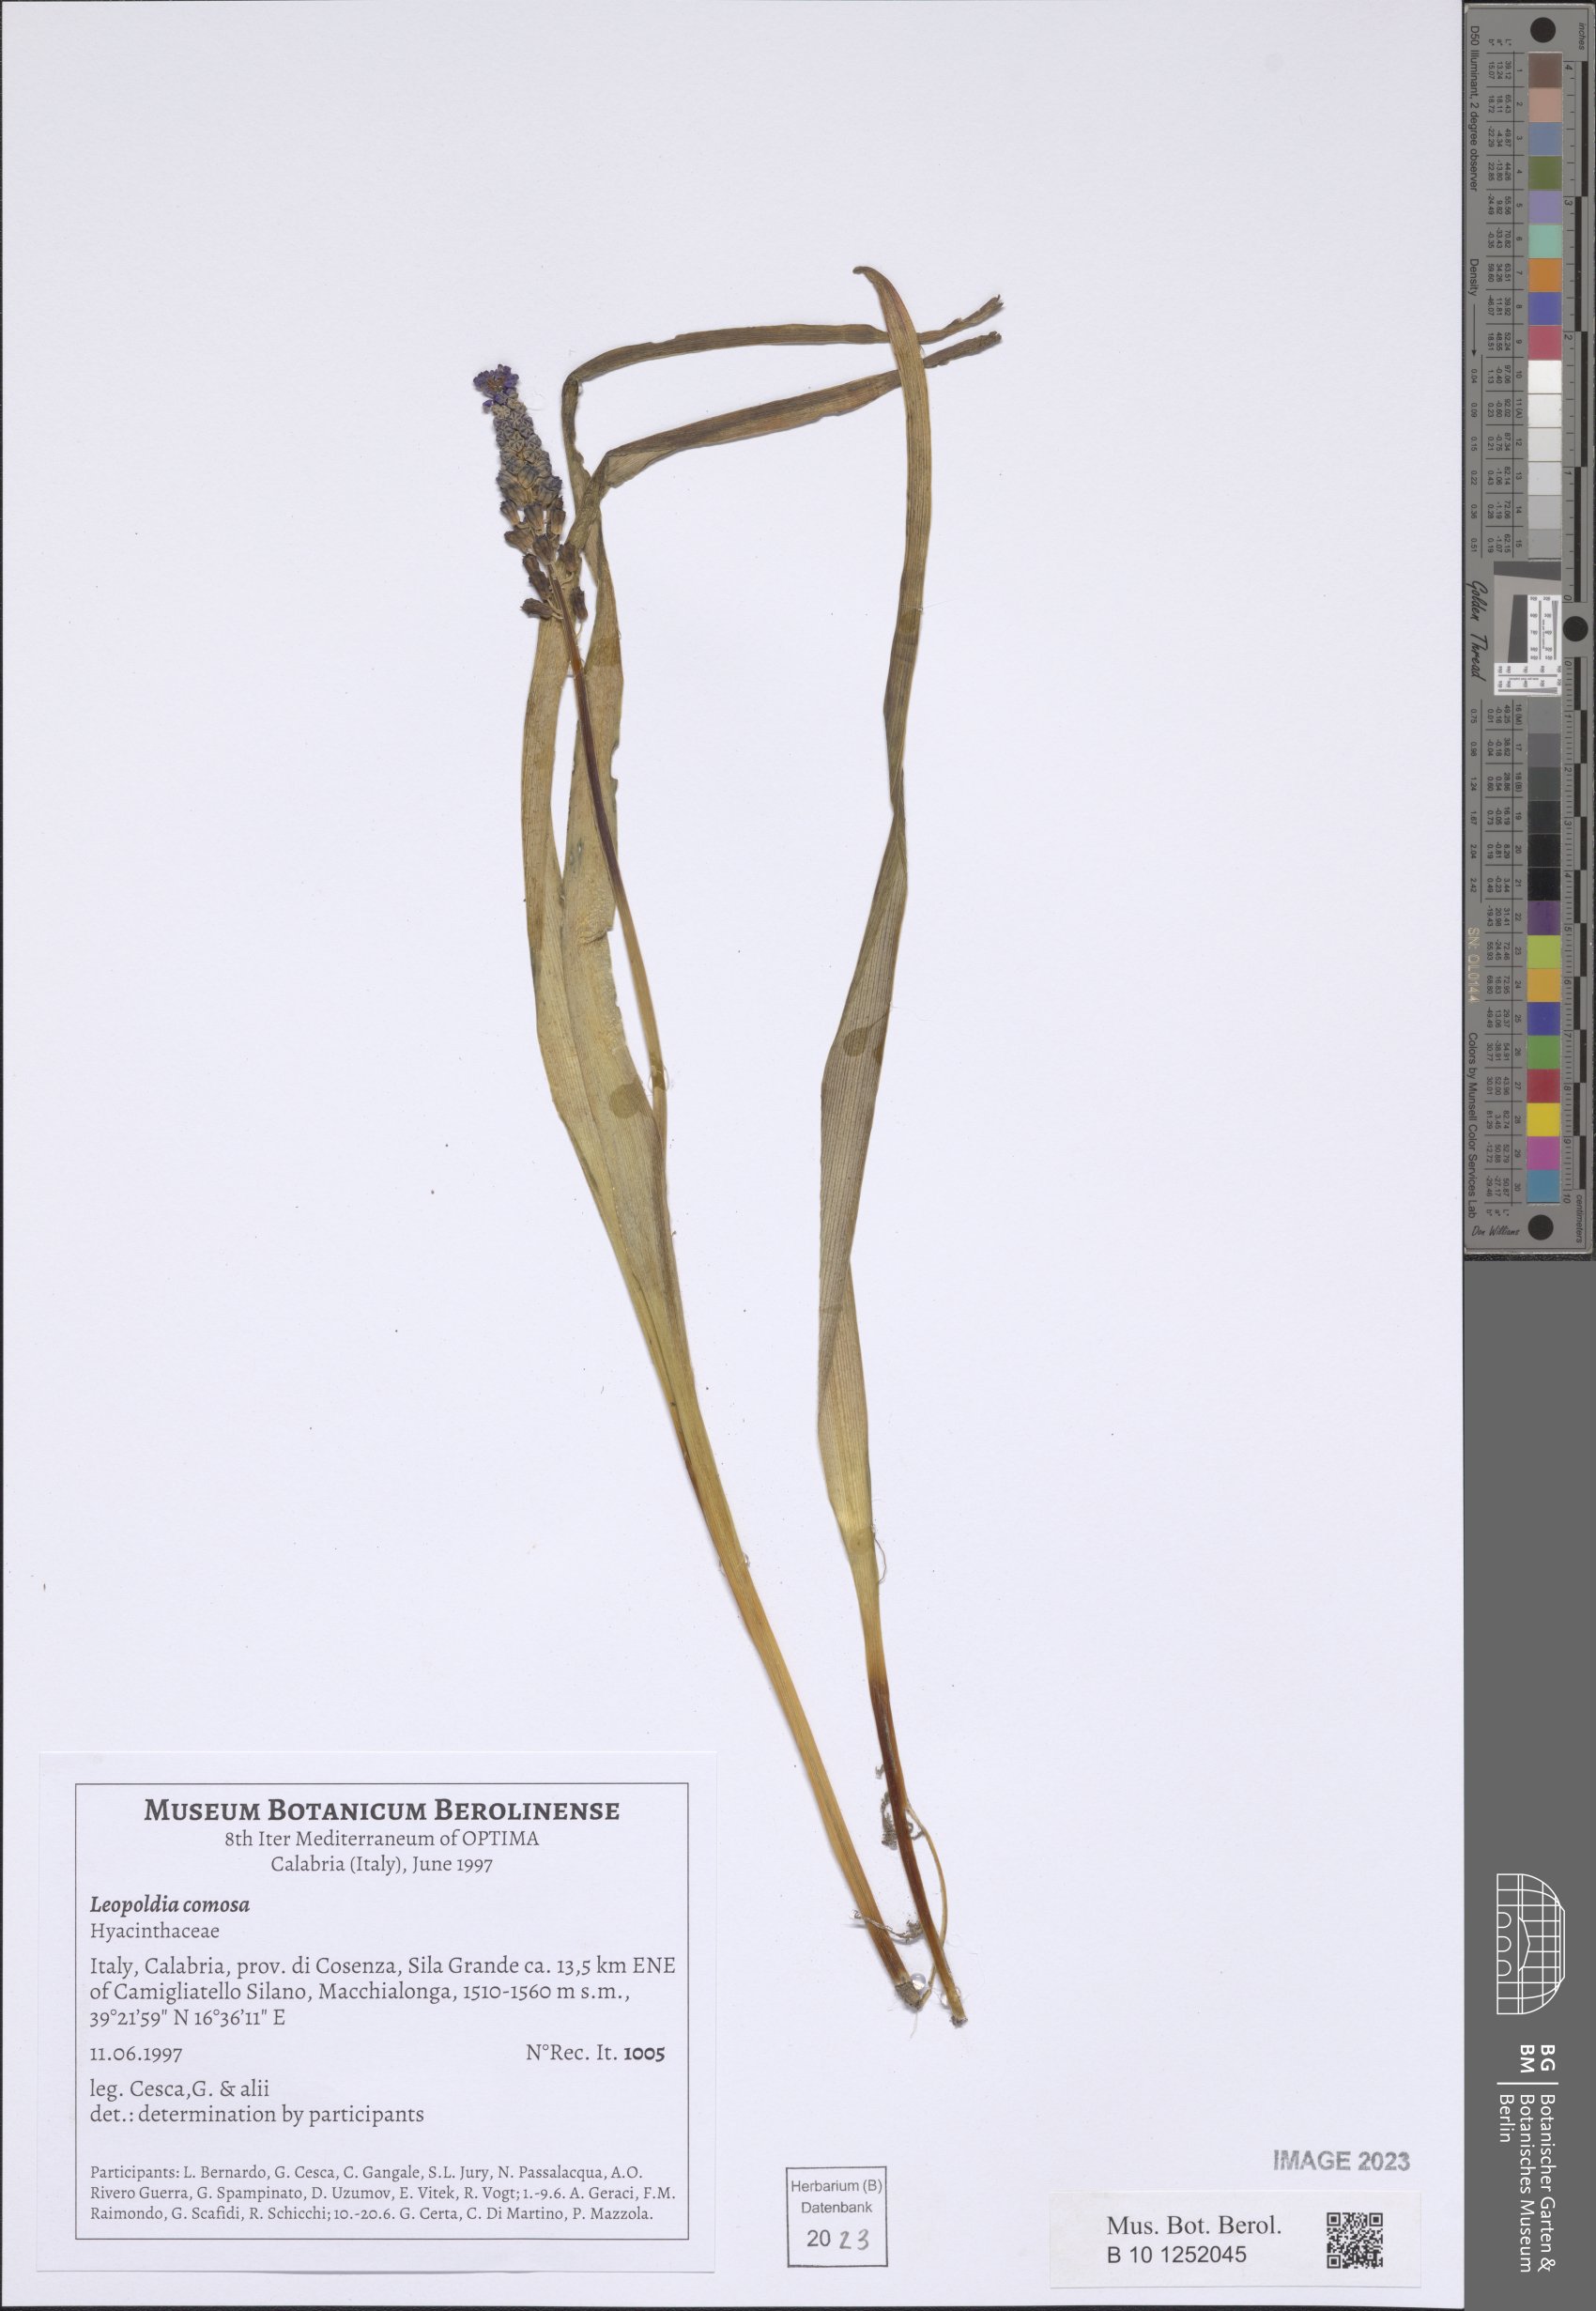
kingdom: Plantae
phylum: Tracheophyta
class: Liliopsida
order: Asparagales
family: Asparagaceae
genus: Muscari
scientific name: Muscari comosum
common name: Tassel hyacinth
